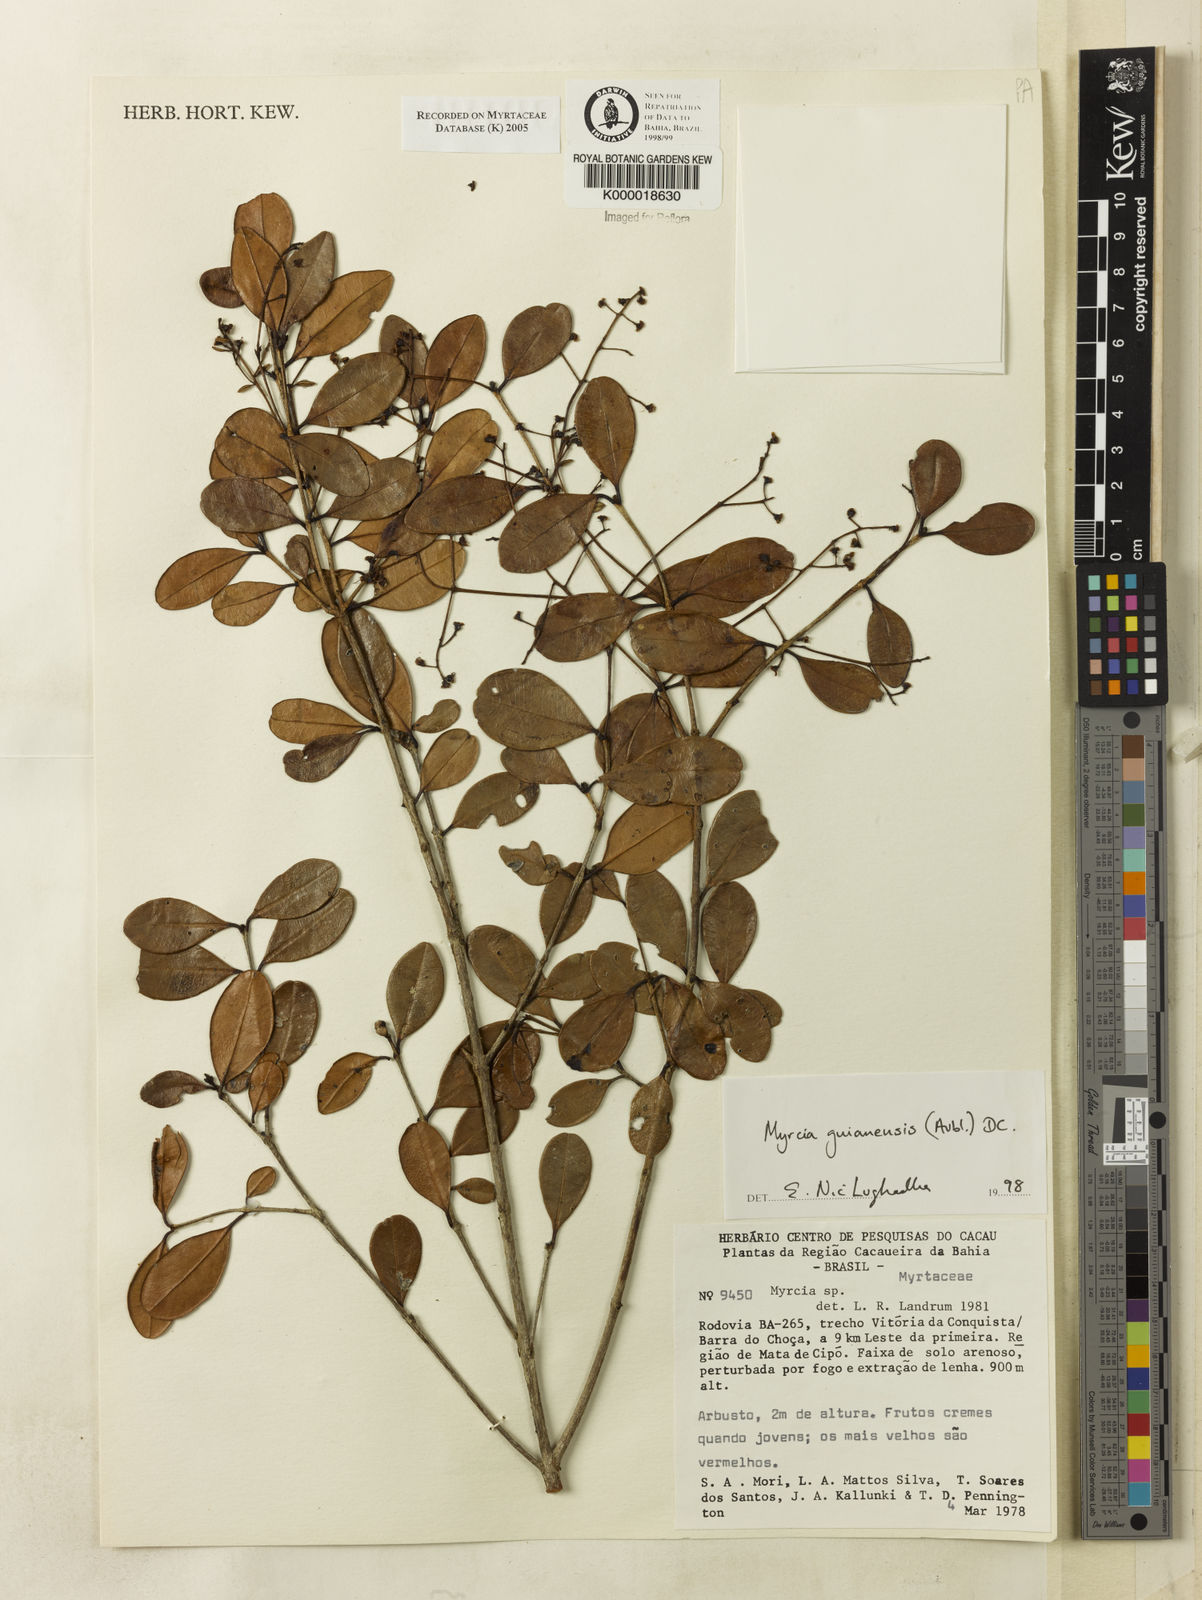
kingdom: Plantae
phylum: Tracheophyta
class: Magnoliopsida
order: Myrtales
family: Myrtaceae
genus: Myrcia
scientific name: Myrcia guianensis
